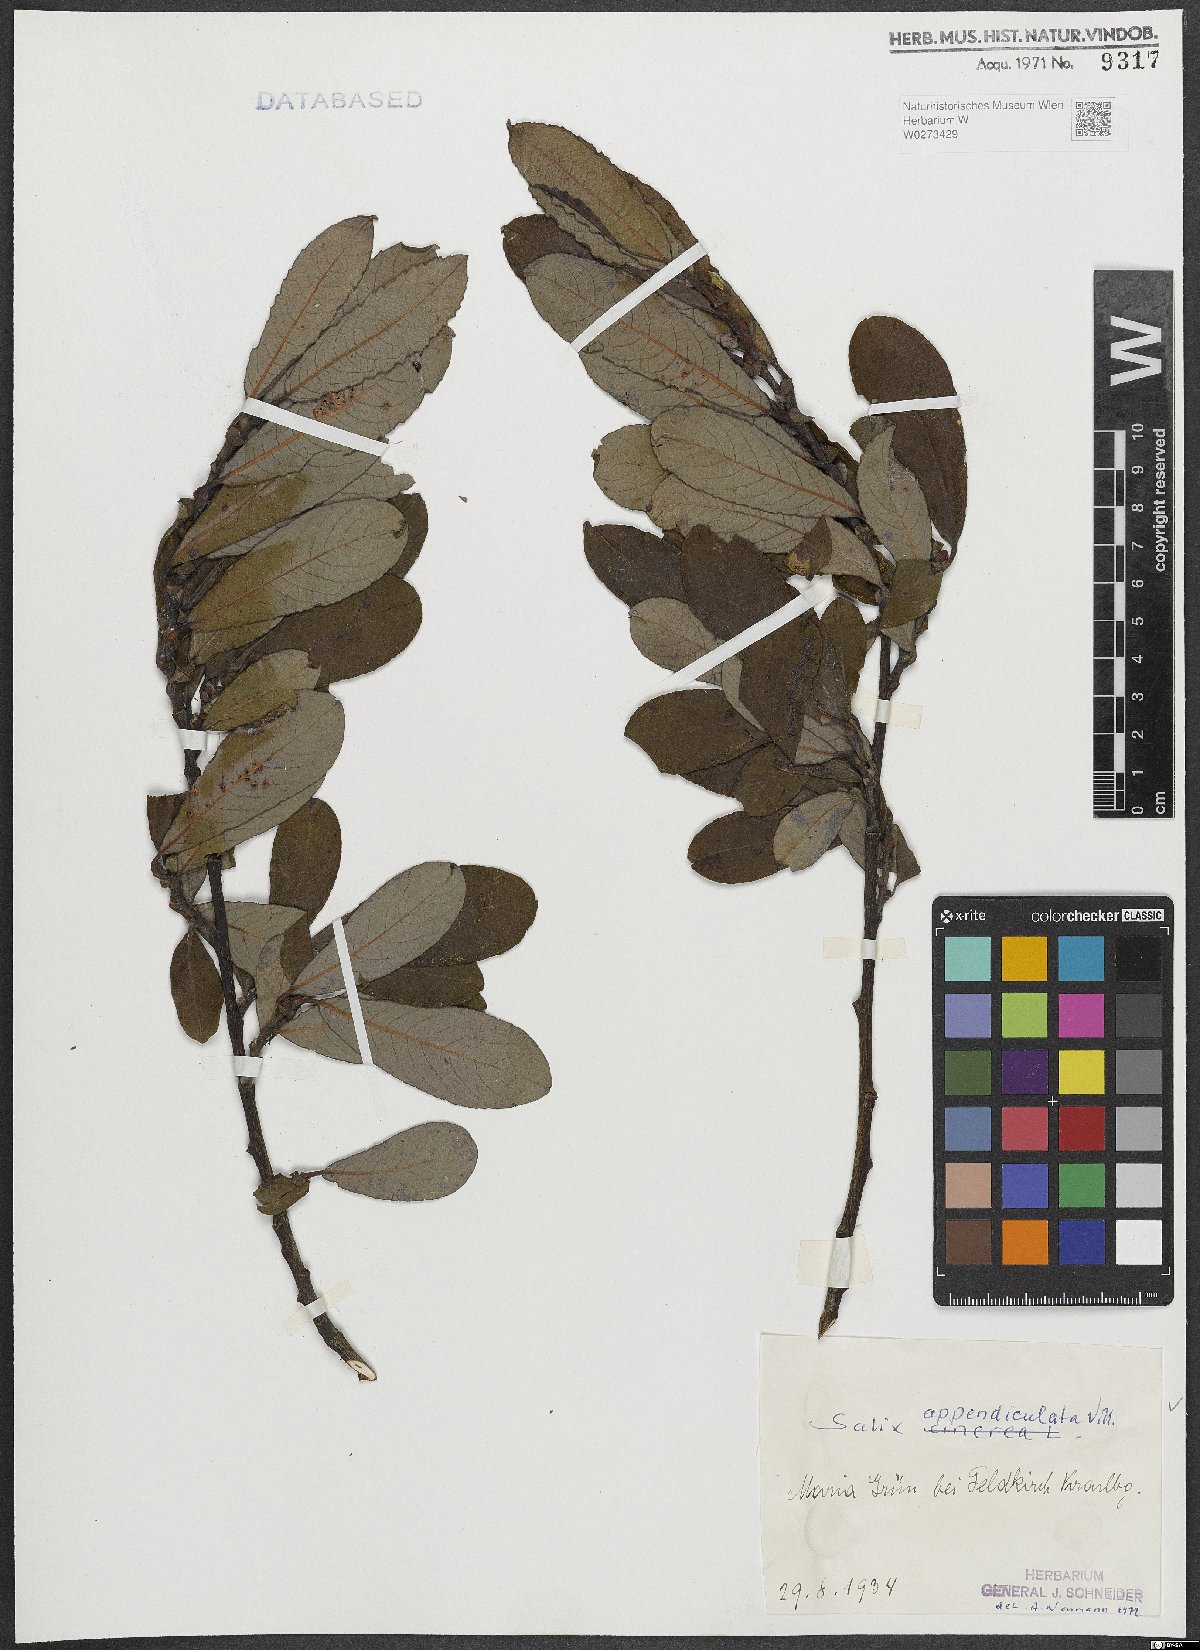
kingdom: Plantae
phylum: Tracheophyta
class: Magnoliopsida
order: Malpighiales
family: Salicaceae
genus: Salix
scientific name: Salix appendiculata
